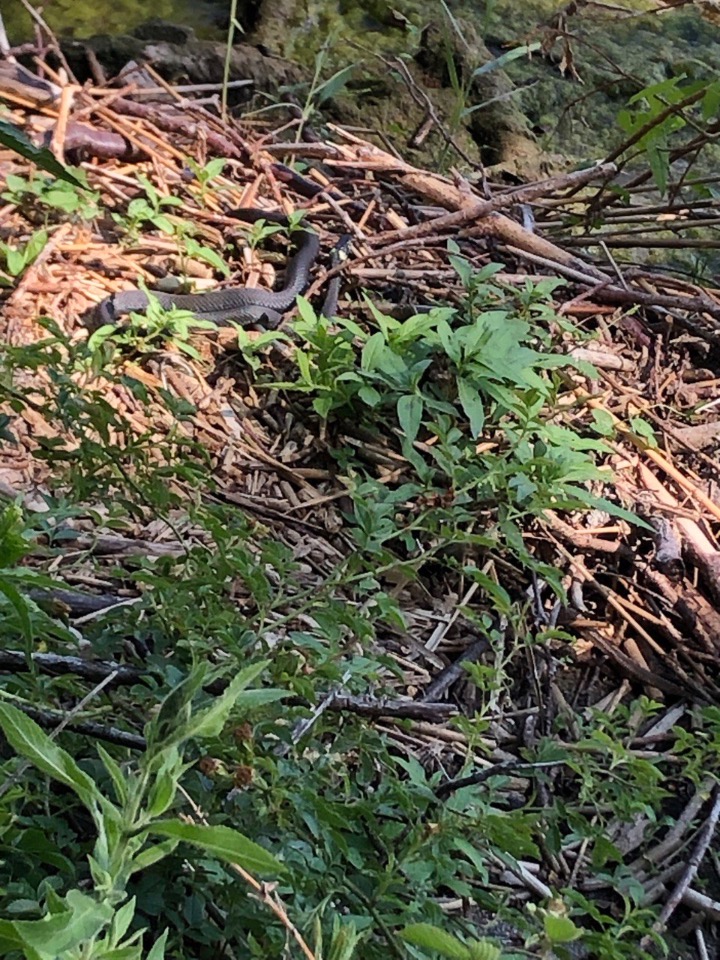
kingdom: Animalia
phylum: Chordata
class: Squamata
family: Colubridae
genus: Natrix
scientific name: Natrix natrix
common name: Snog
